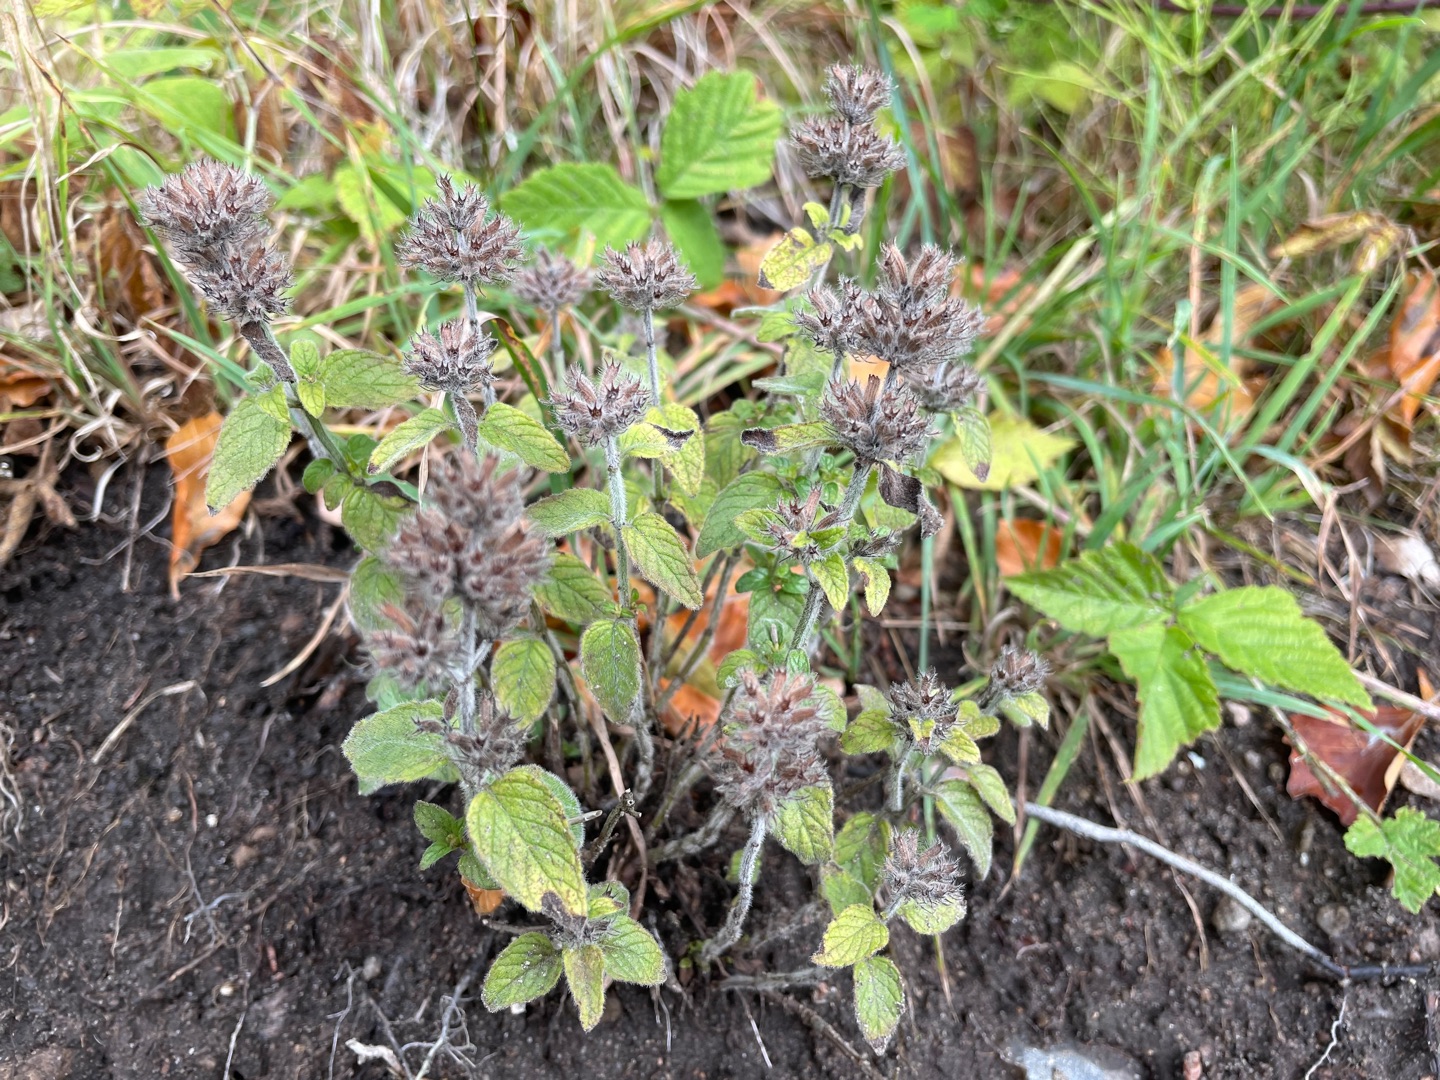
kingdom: Plantae
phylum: Tracheophyta
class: Magnoliopsida
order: Lamiales
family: Lamiaceae
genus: Clinopodium
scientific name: Clinopodium vulgare
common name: Kransbørste
